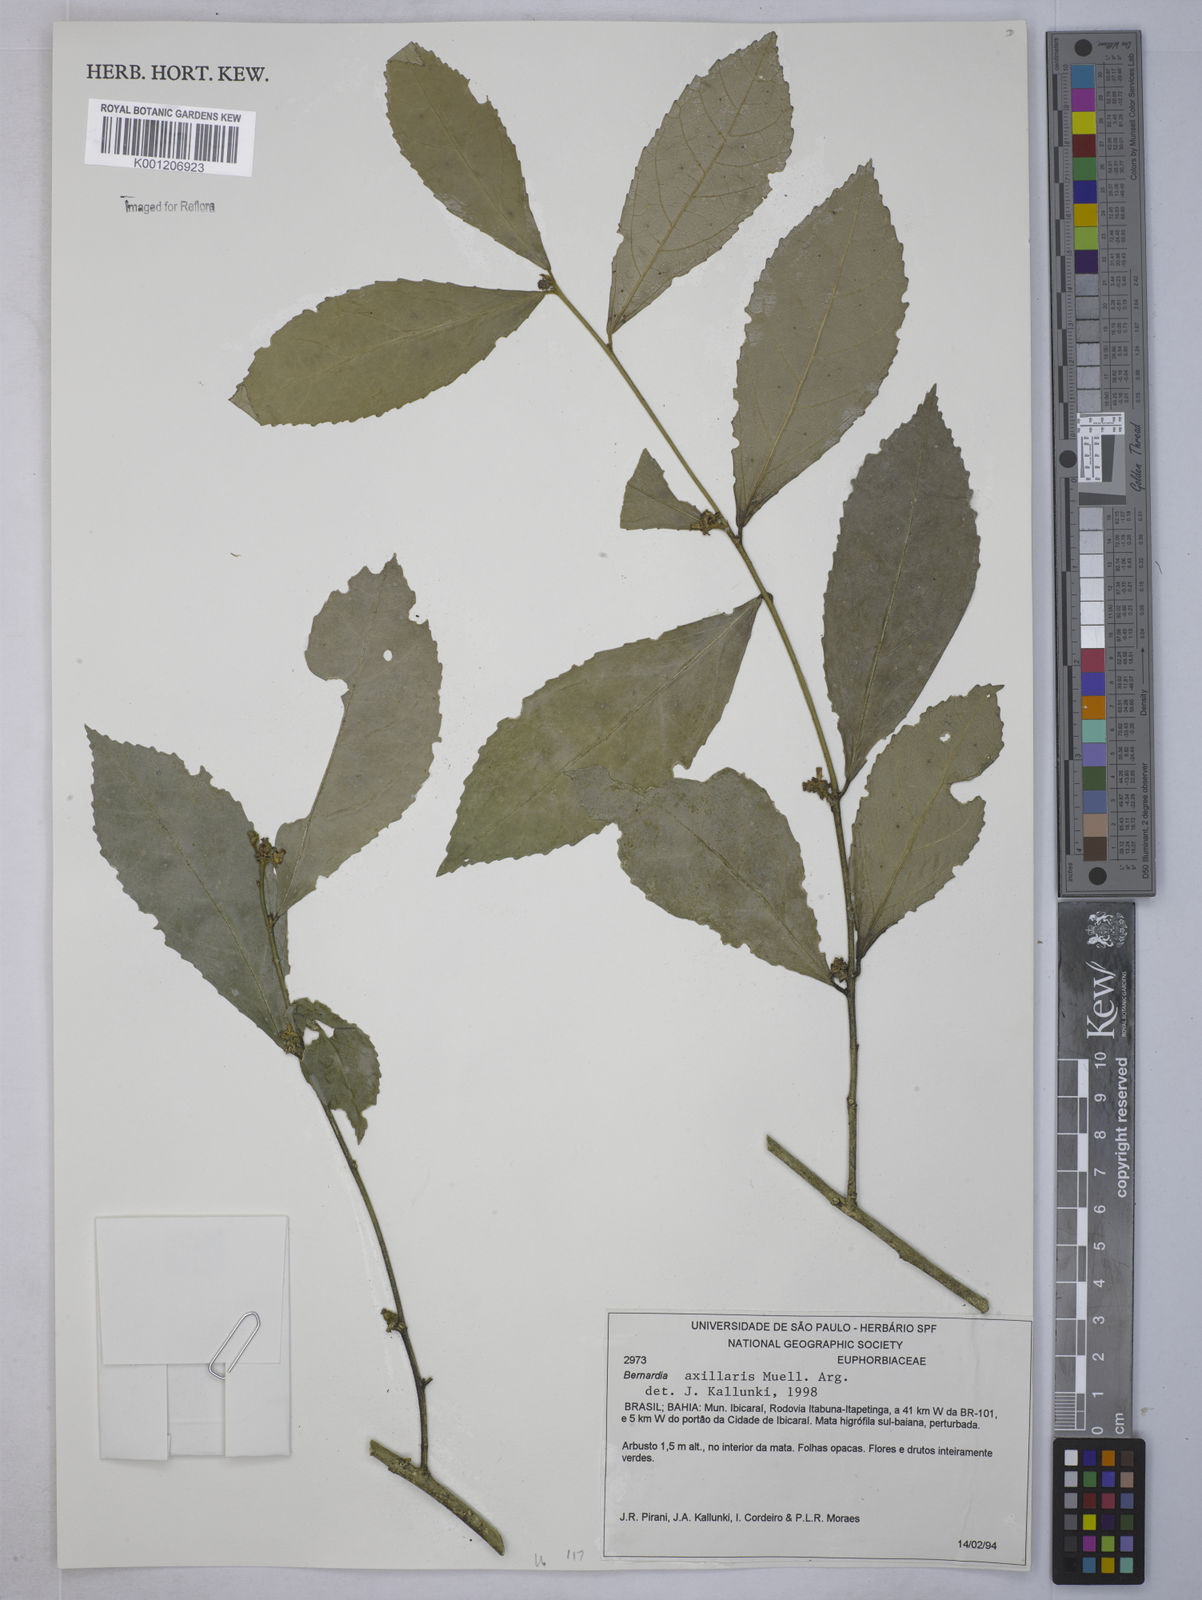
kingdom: Plantae
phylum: Tracheophyta
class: Magnoliopsida
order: Malpighiales
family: Euphorbiaceae
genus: Bernardia
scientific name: Bernardia
